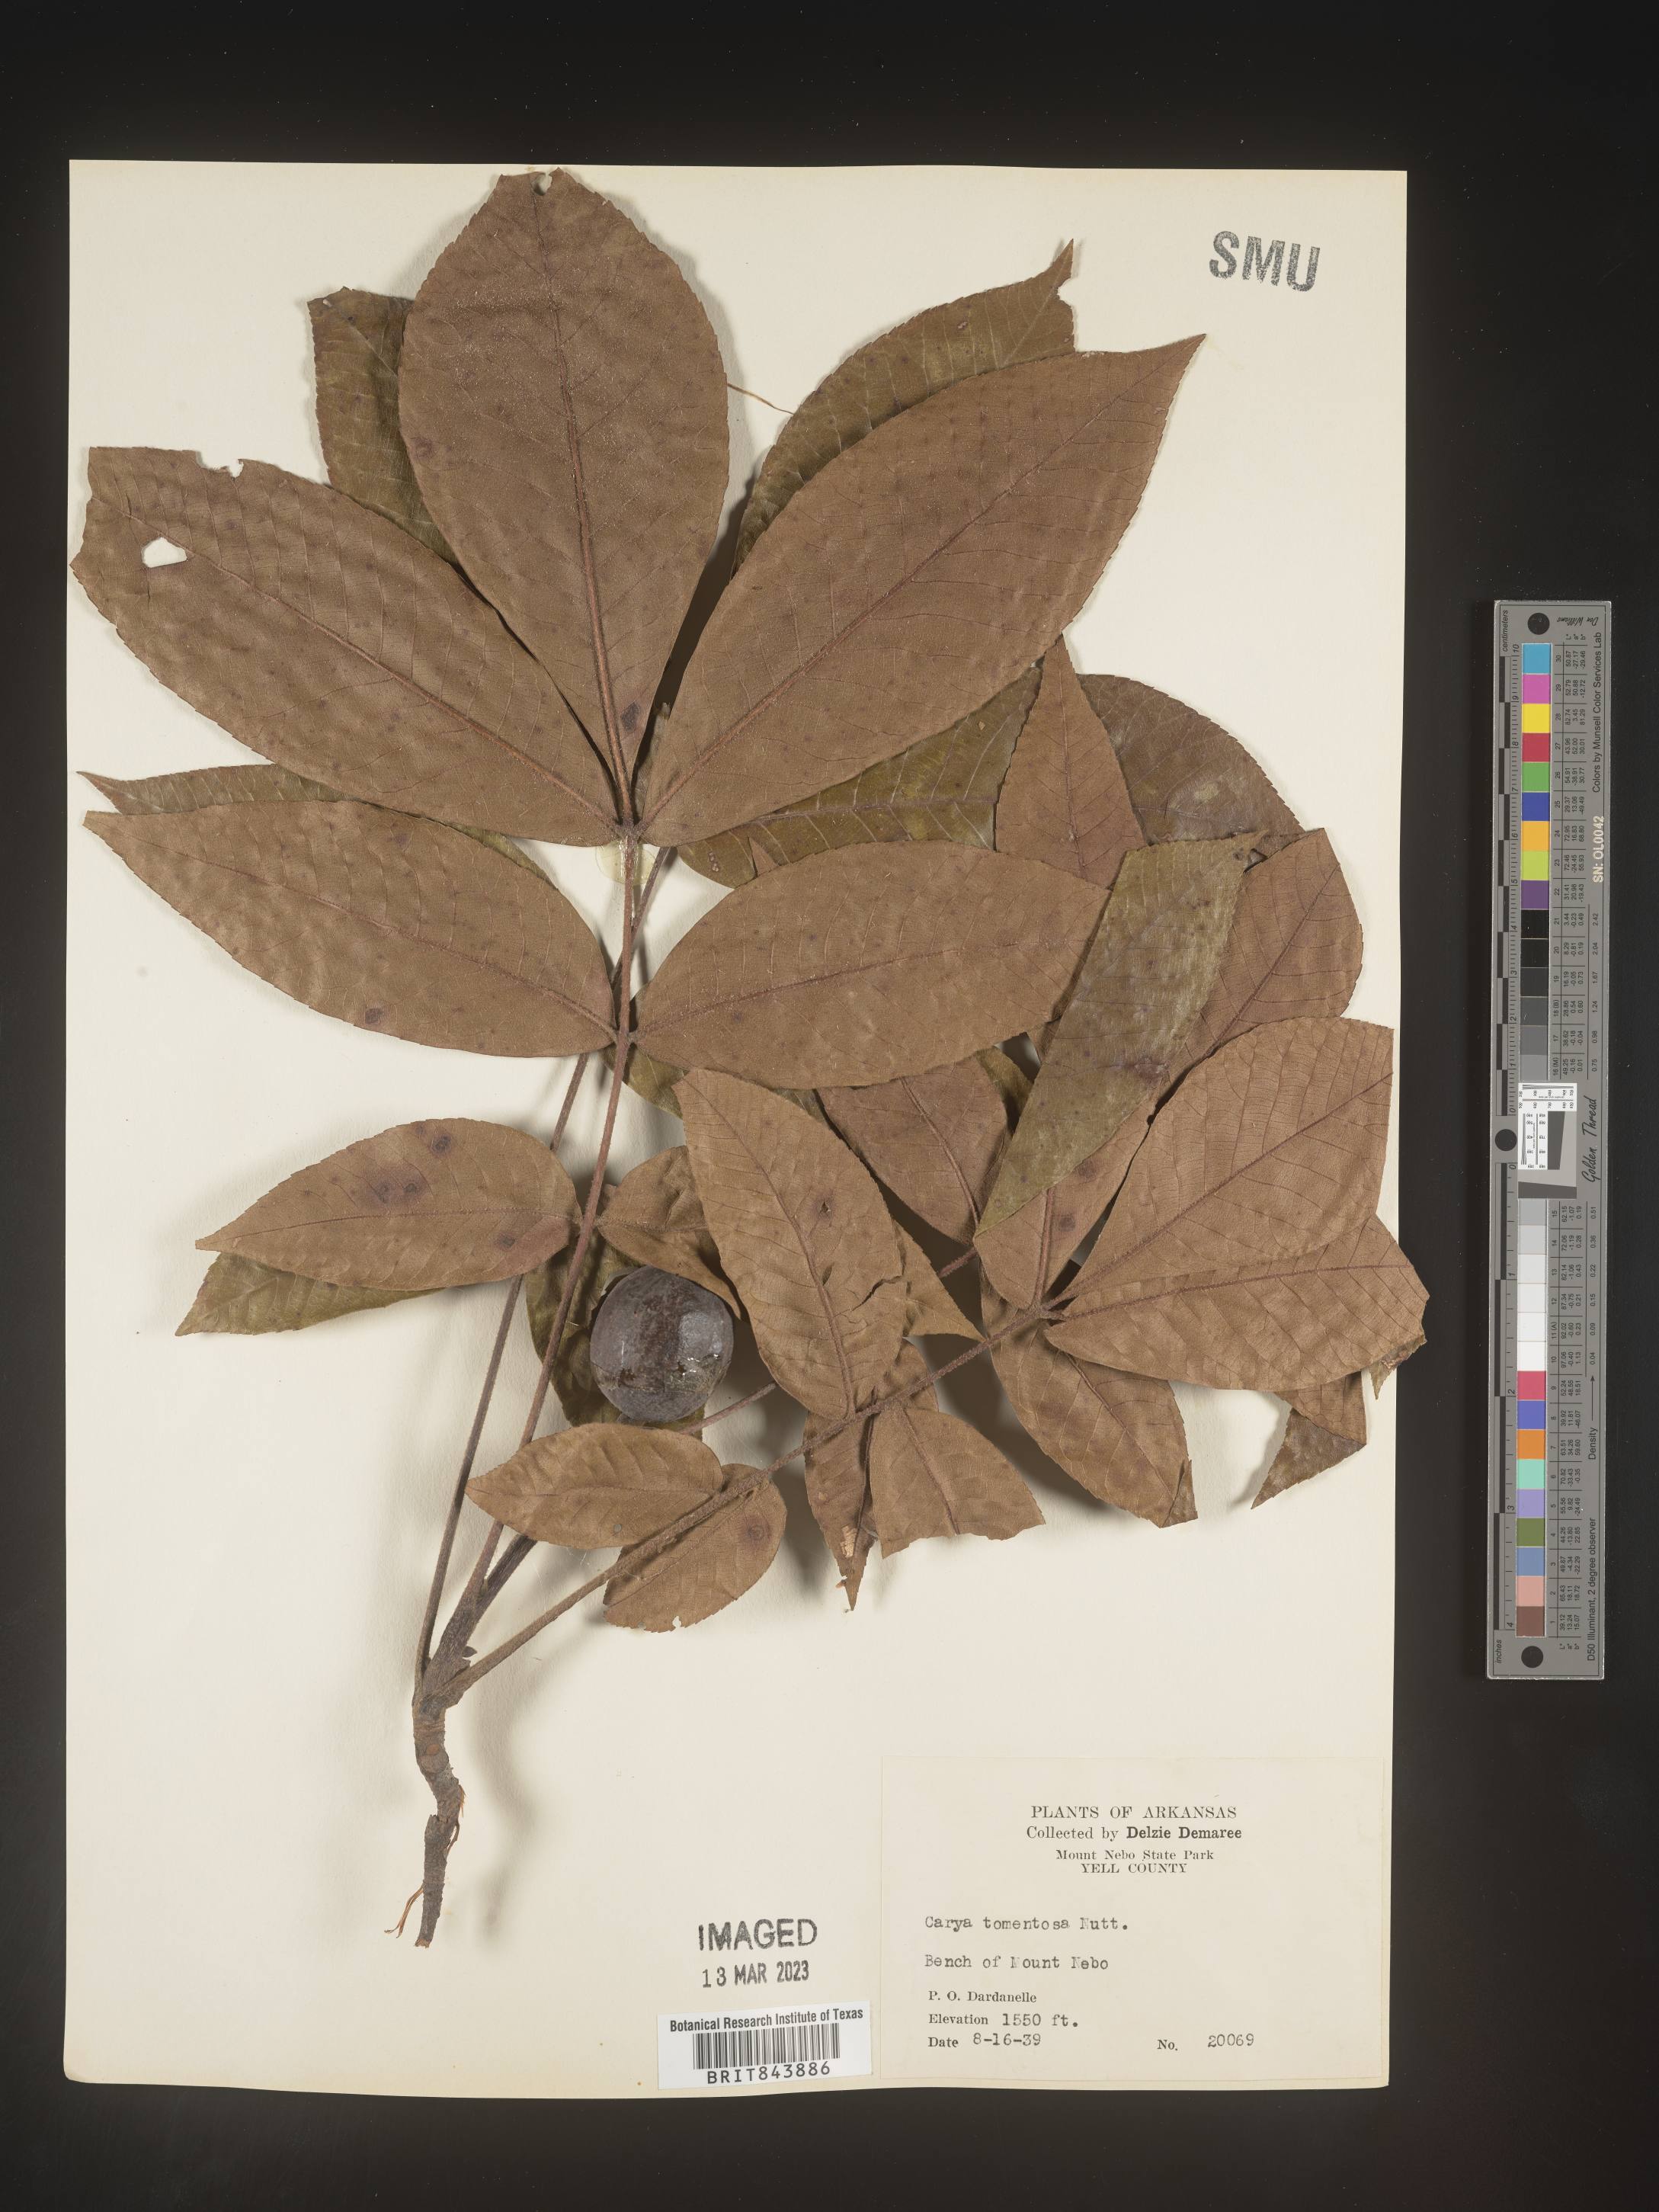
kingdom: Plantae
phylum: Tracheophyta
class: Magnoliopsida
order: Fagales
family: Juglandaceae
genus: Carya
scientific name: Carya alba
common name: Mockernut hickory
